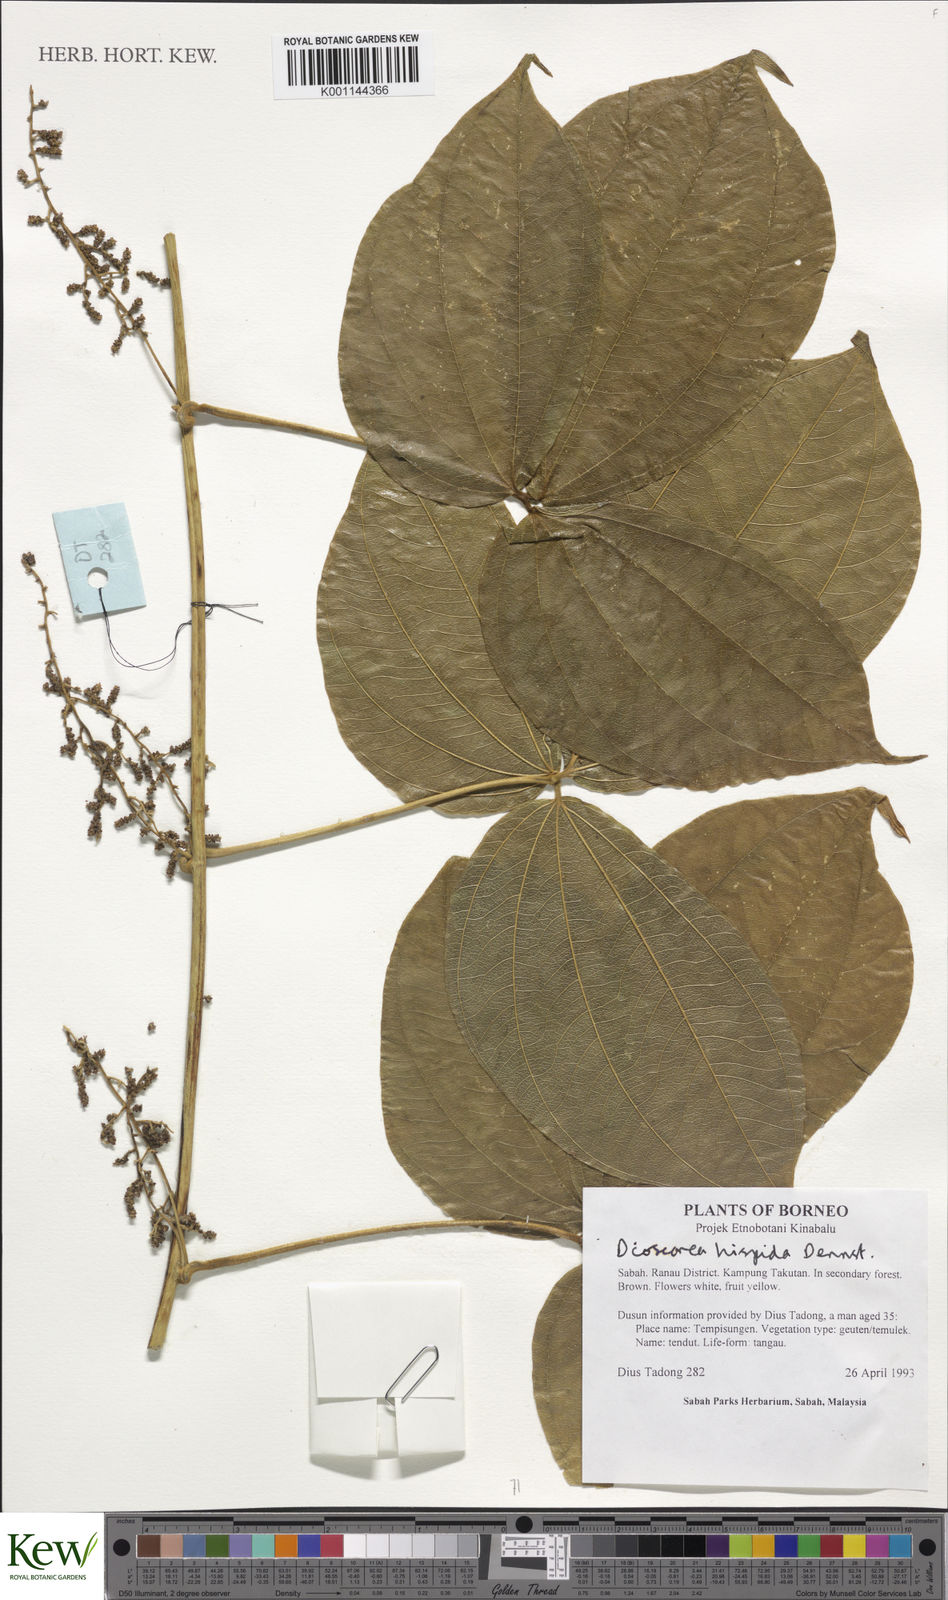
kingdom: Plantae
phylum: Tracheophyta
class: Liliopsida
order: Dioscoreales
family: Dioscoreaceae
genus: Dioscorea
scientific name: Dioscorea hispida
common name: Asiatic bitter yam
